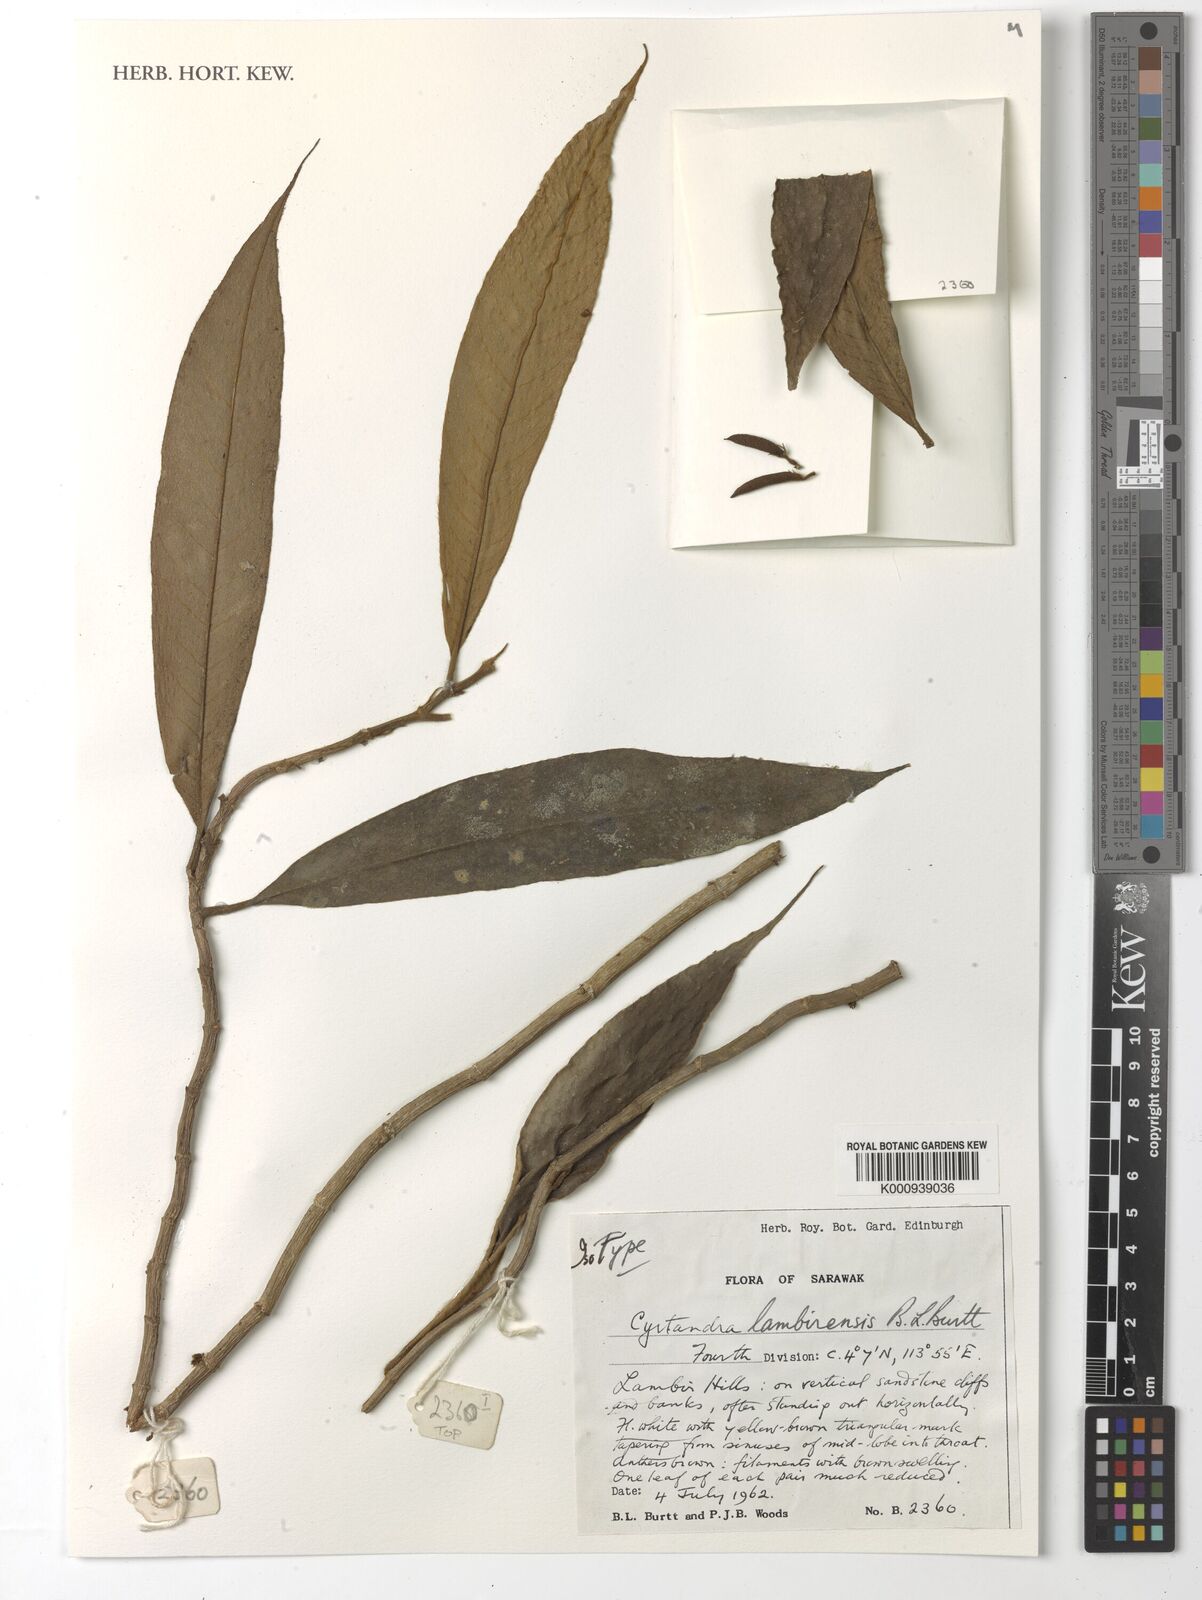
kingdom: Plantae
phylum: Tracheophyta
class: Magnoliopsida
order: Lamiales
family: Gesneriaceae
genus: Cyrtandra
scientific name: Cyrtandra lambirensis
